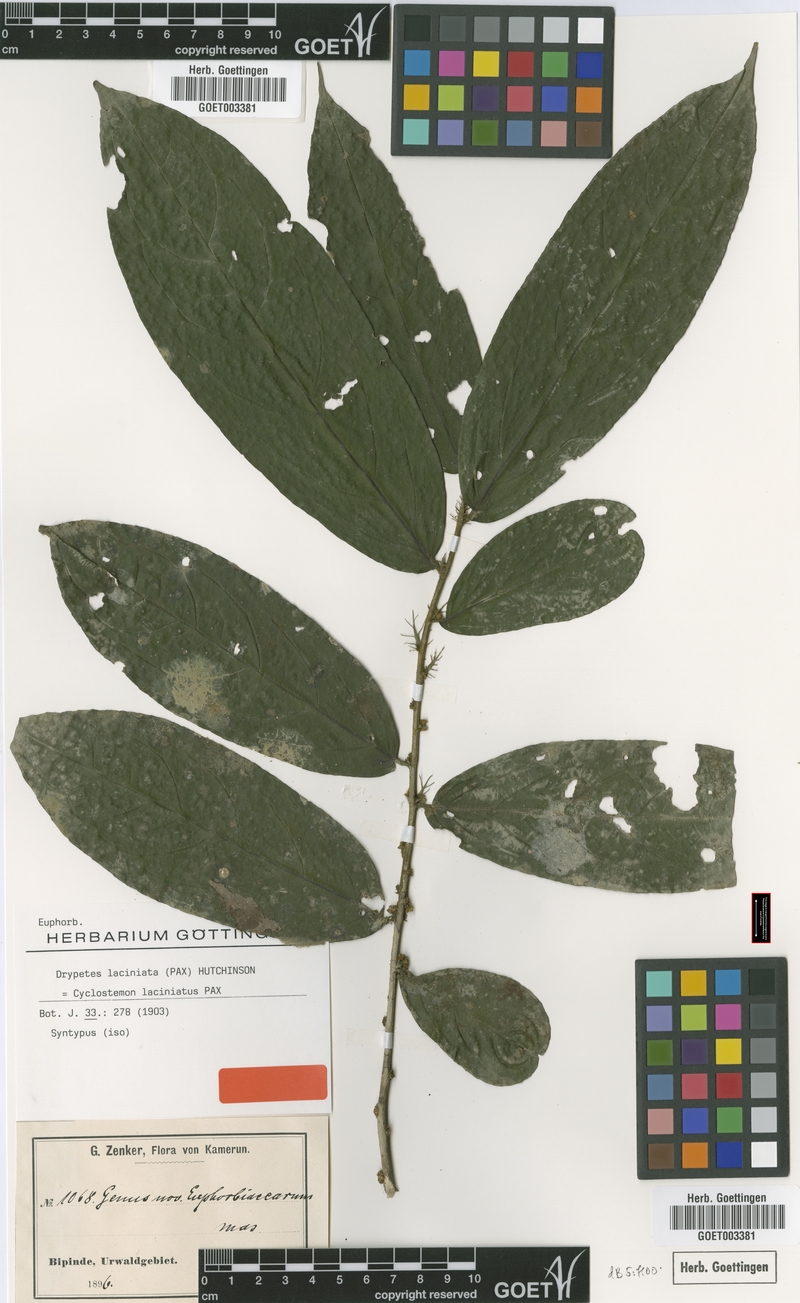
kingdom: Plantae
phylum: Tracheophyta
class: Magnoliopsida
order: Malpighiales
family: Putranjivaceae
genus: Drypetes
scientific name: Drypetes laciniata
